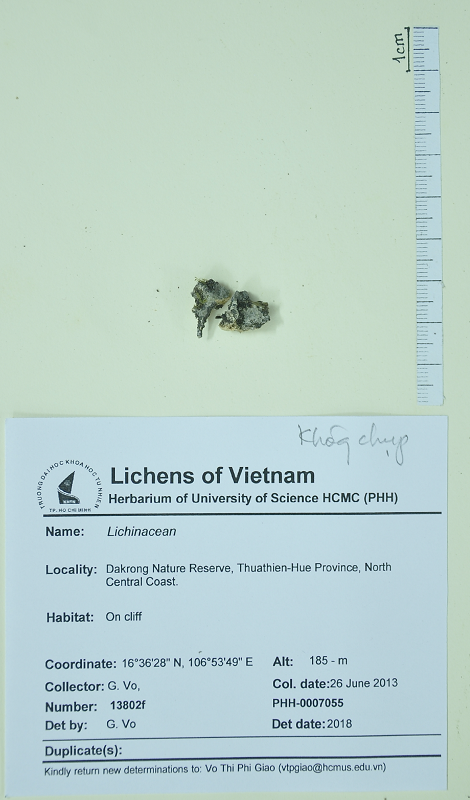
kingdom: Fungi
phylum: Ascomycota
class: Lichinomycetes
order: Lichinales
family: Lichinaceae
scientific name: Lichinaceae
